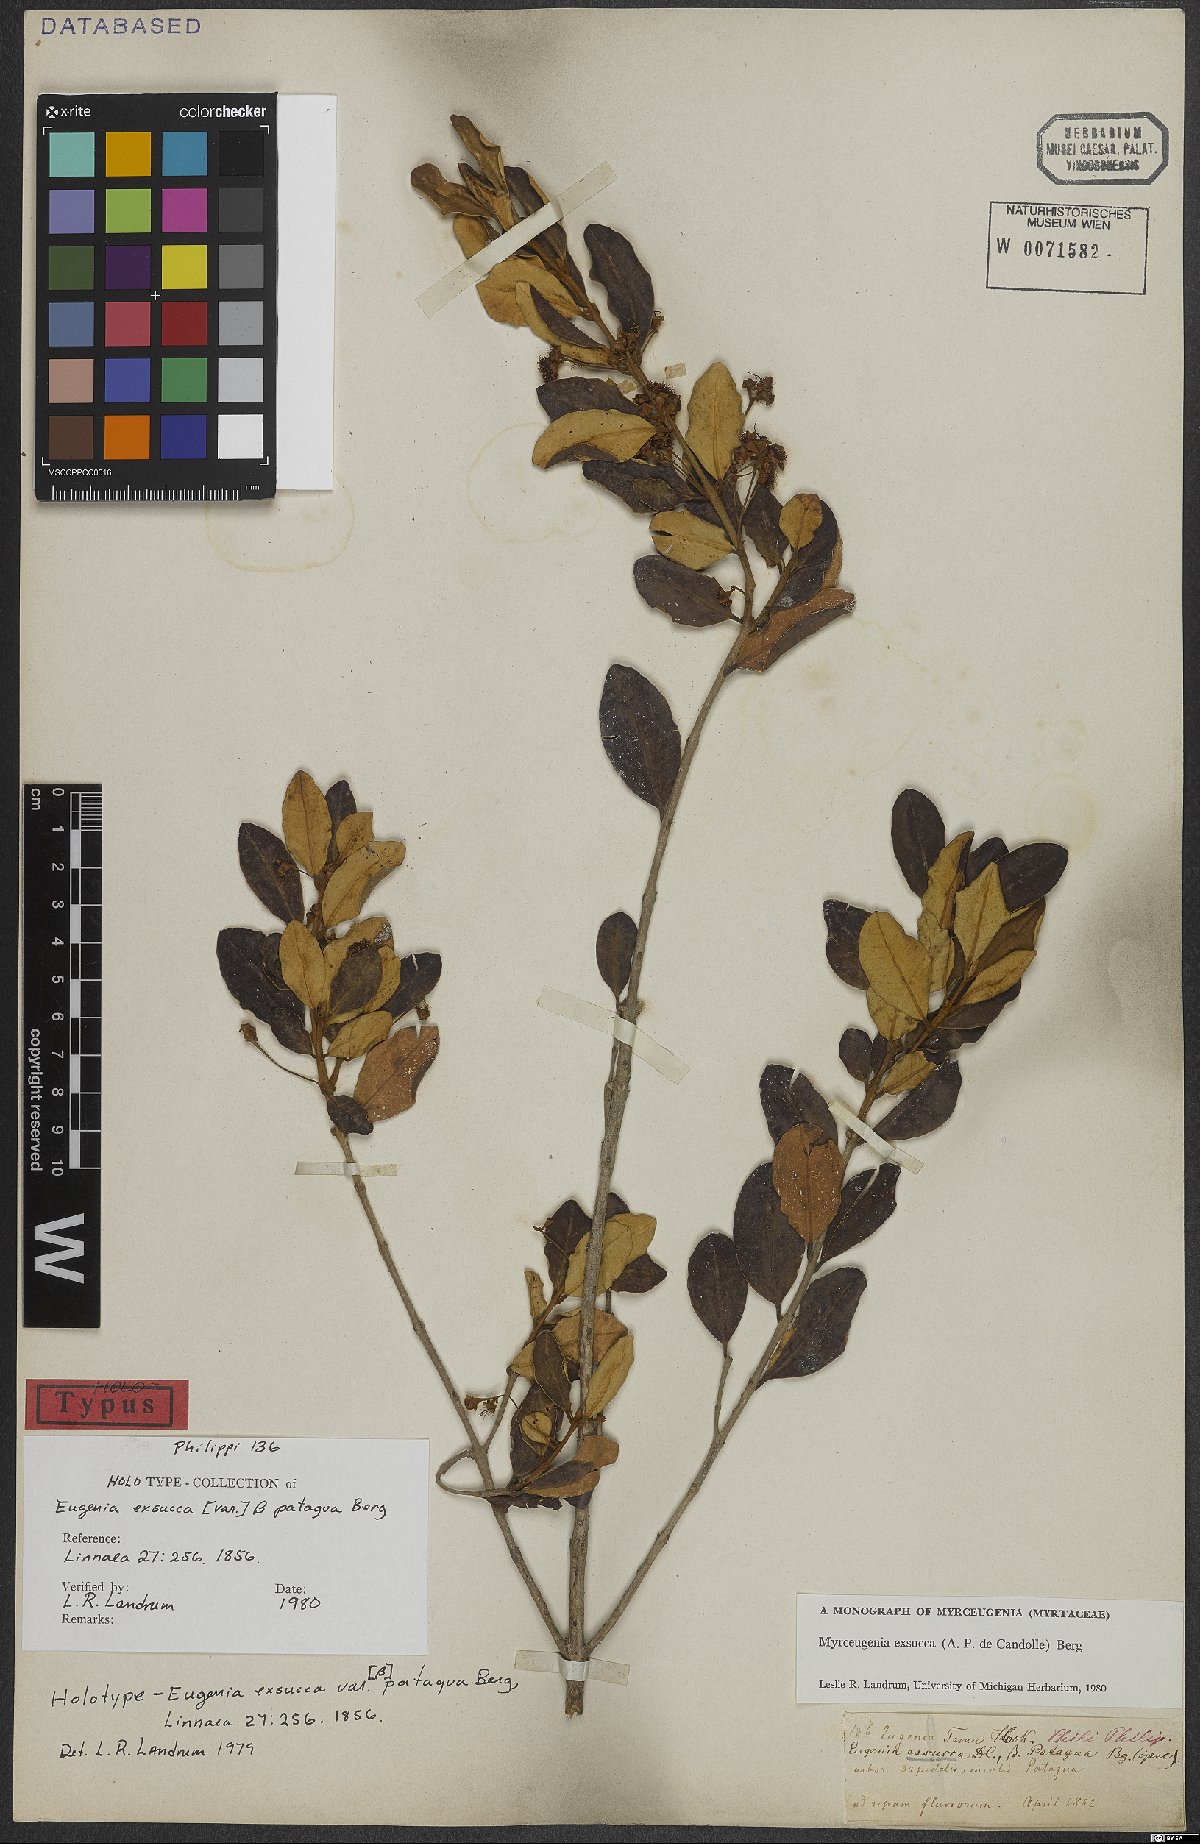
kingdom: Plantae
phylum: Tracheophyta
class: Magnoliopsida
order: Myrtales
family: Myrtaceae
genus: Myrceugenia
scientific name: Myrceugenia exsucca
